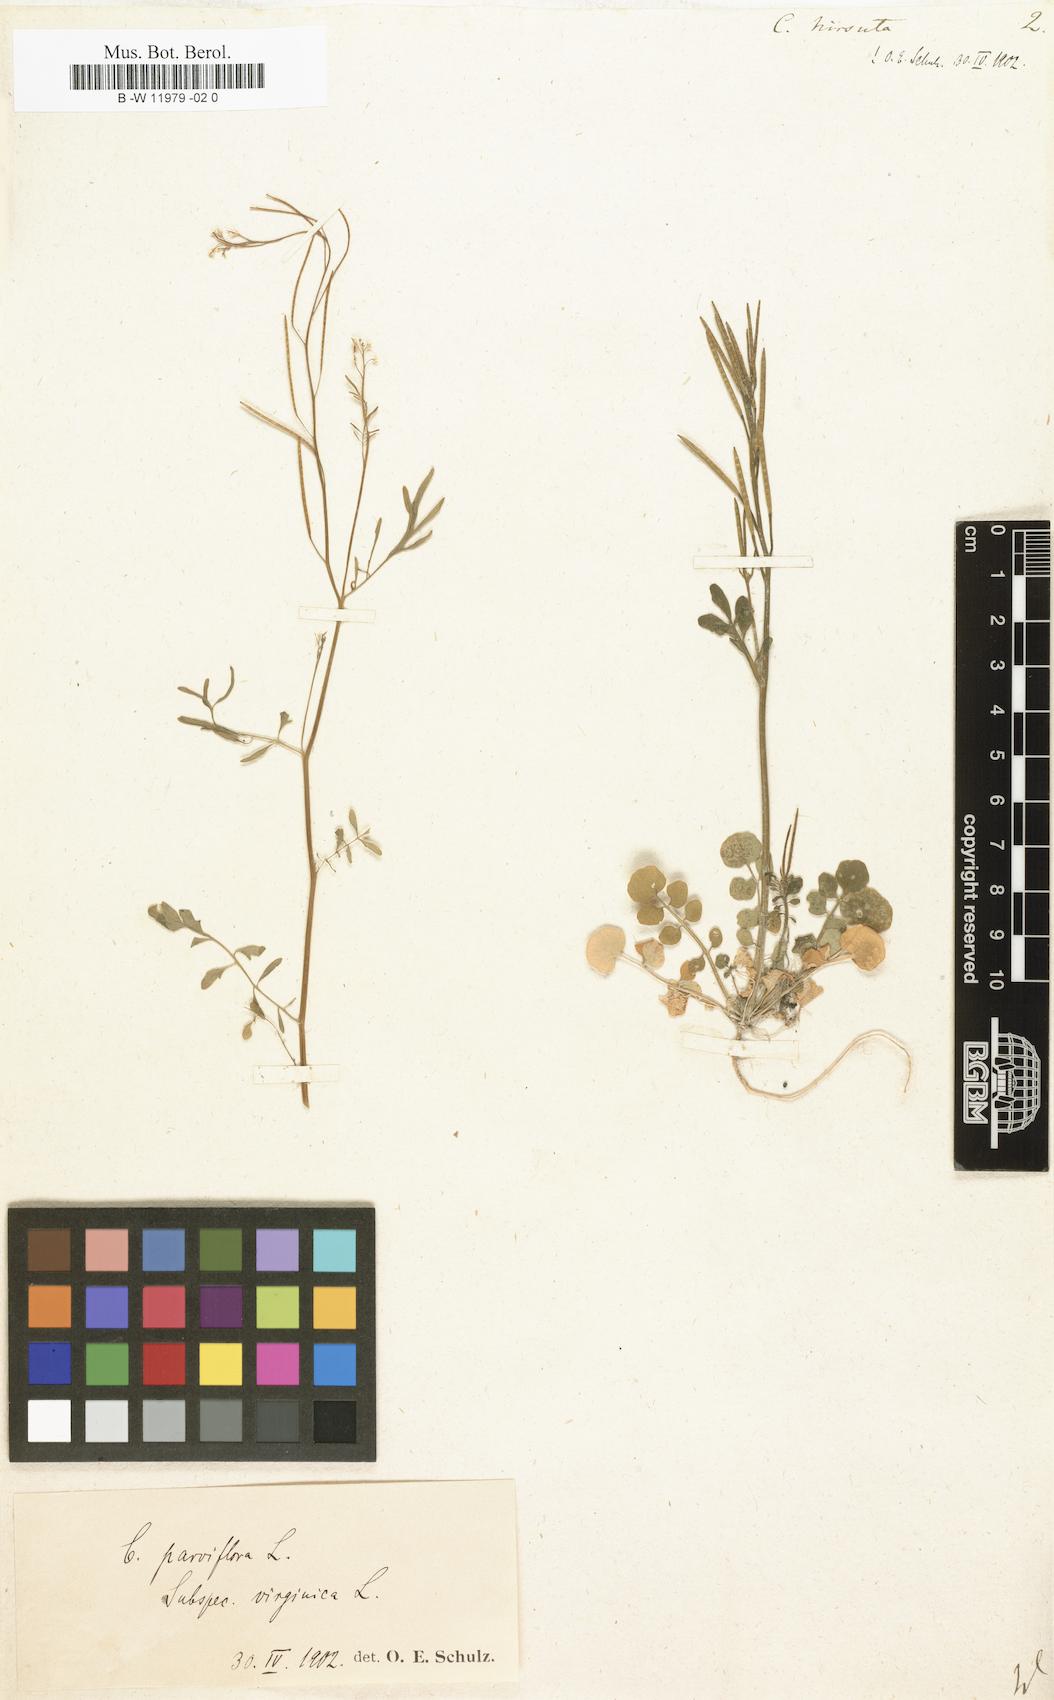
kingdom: Plantae
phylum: Tracheophyta
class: Magnoliopsida
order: Brassicales
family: Brassicaceae
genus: Cardamine
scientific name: Cardamine hirsuta
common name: Hairy bittercress
